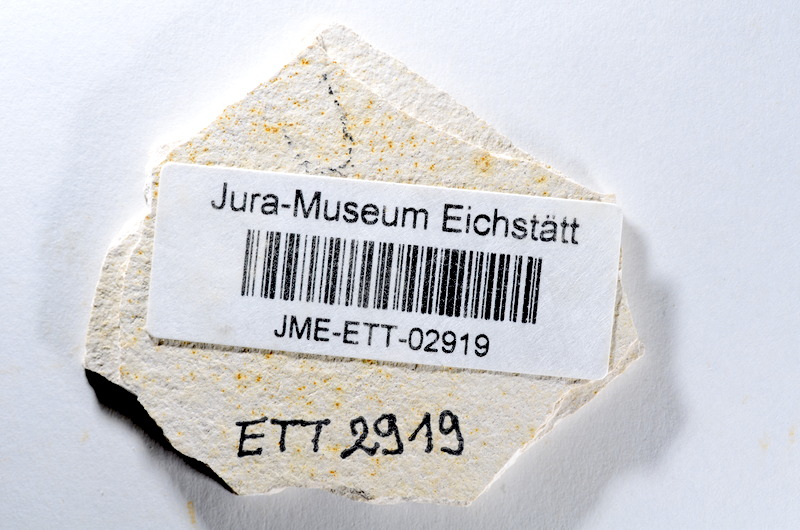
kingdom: Animalia
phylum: Chordata
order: Salmoniformes
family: Orthogonikleithridae
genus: Orthogonikleithrus
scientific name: Orthogonikleithrus hoelli
